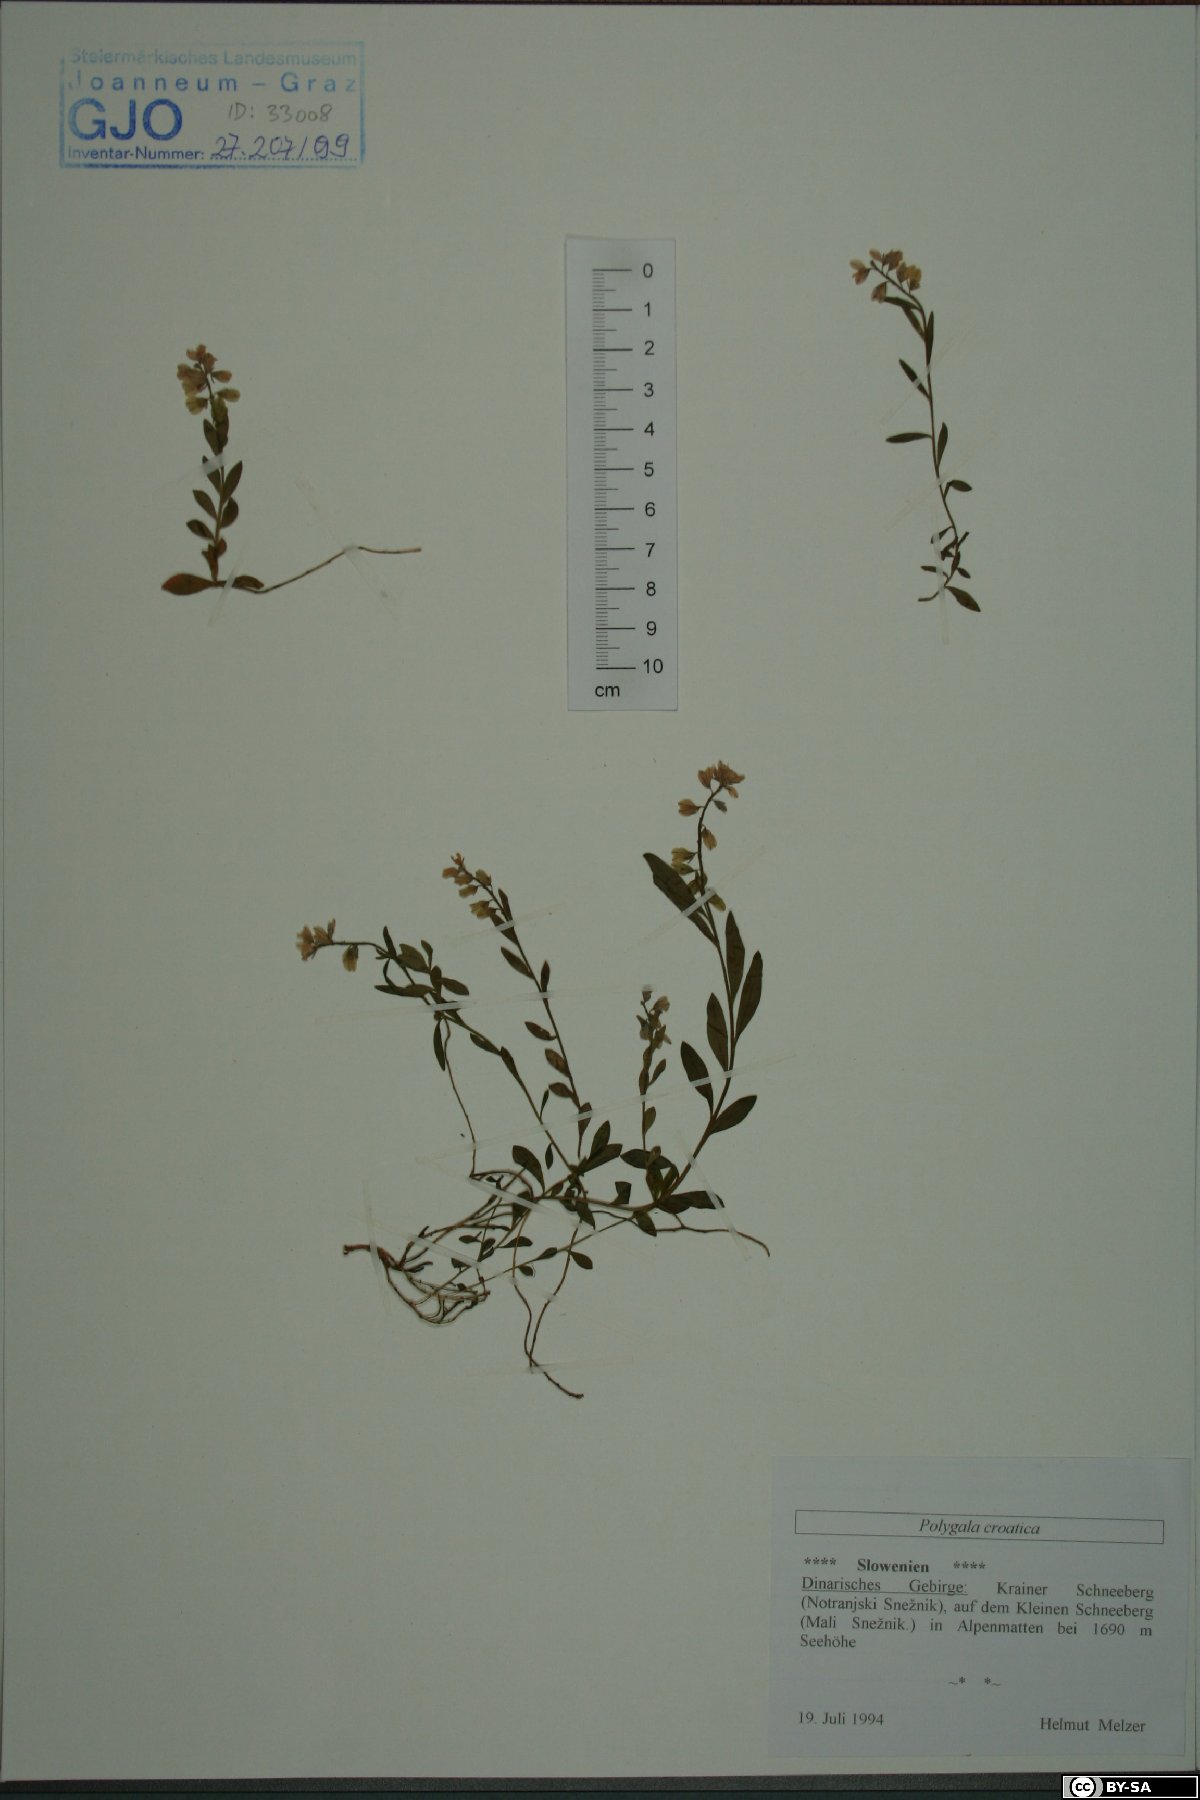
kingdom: Plantae
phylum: Tracheophyta
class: Magnoliopsida
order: Fabales
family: Polygalaceae
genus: Polygala
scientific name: Polygala alpestris
